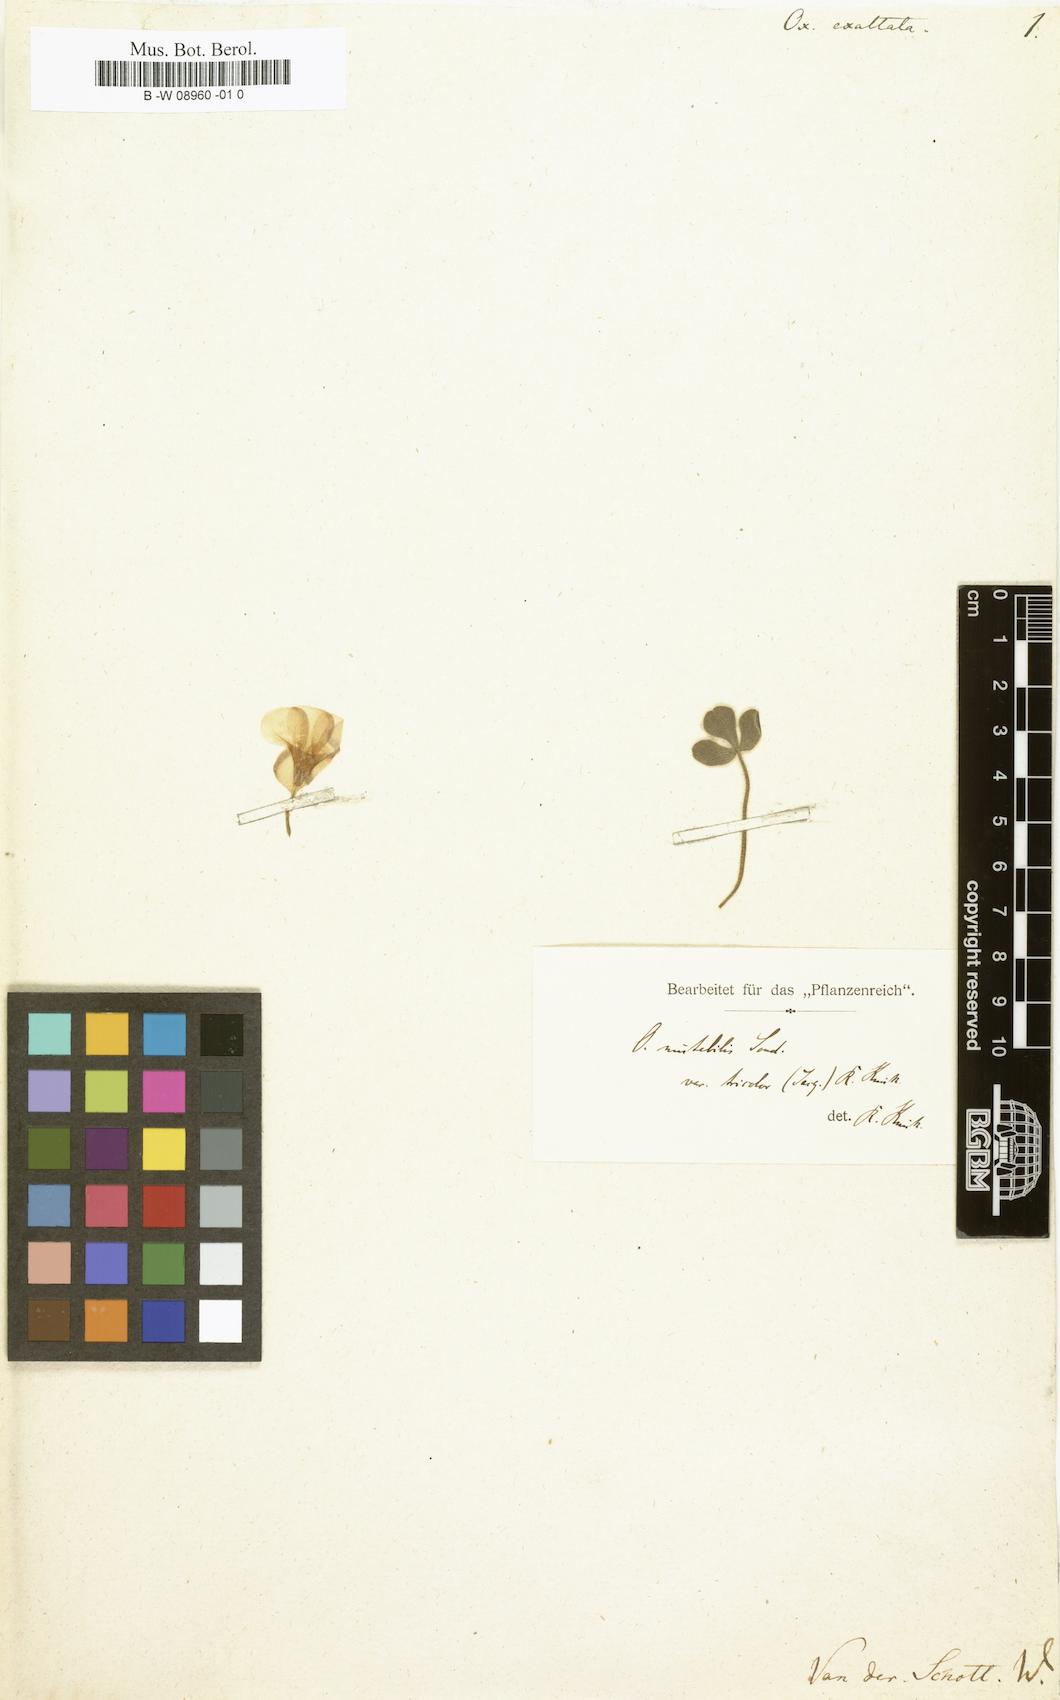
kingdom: Plantae
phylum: Tracheophyta
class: Magnoliopsida
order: Oxalidales
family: Oxalidaceae
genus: Oxalis
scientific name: Oxalis ambigua
